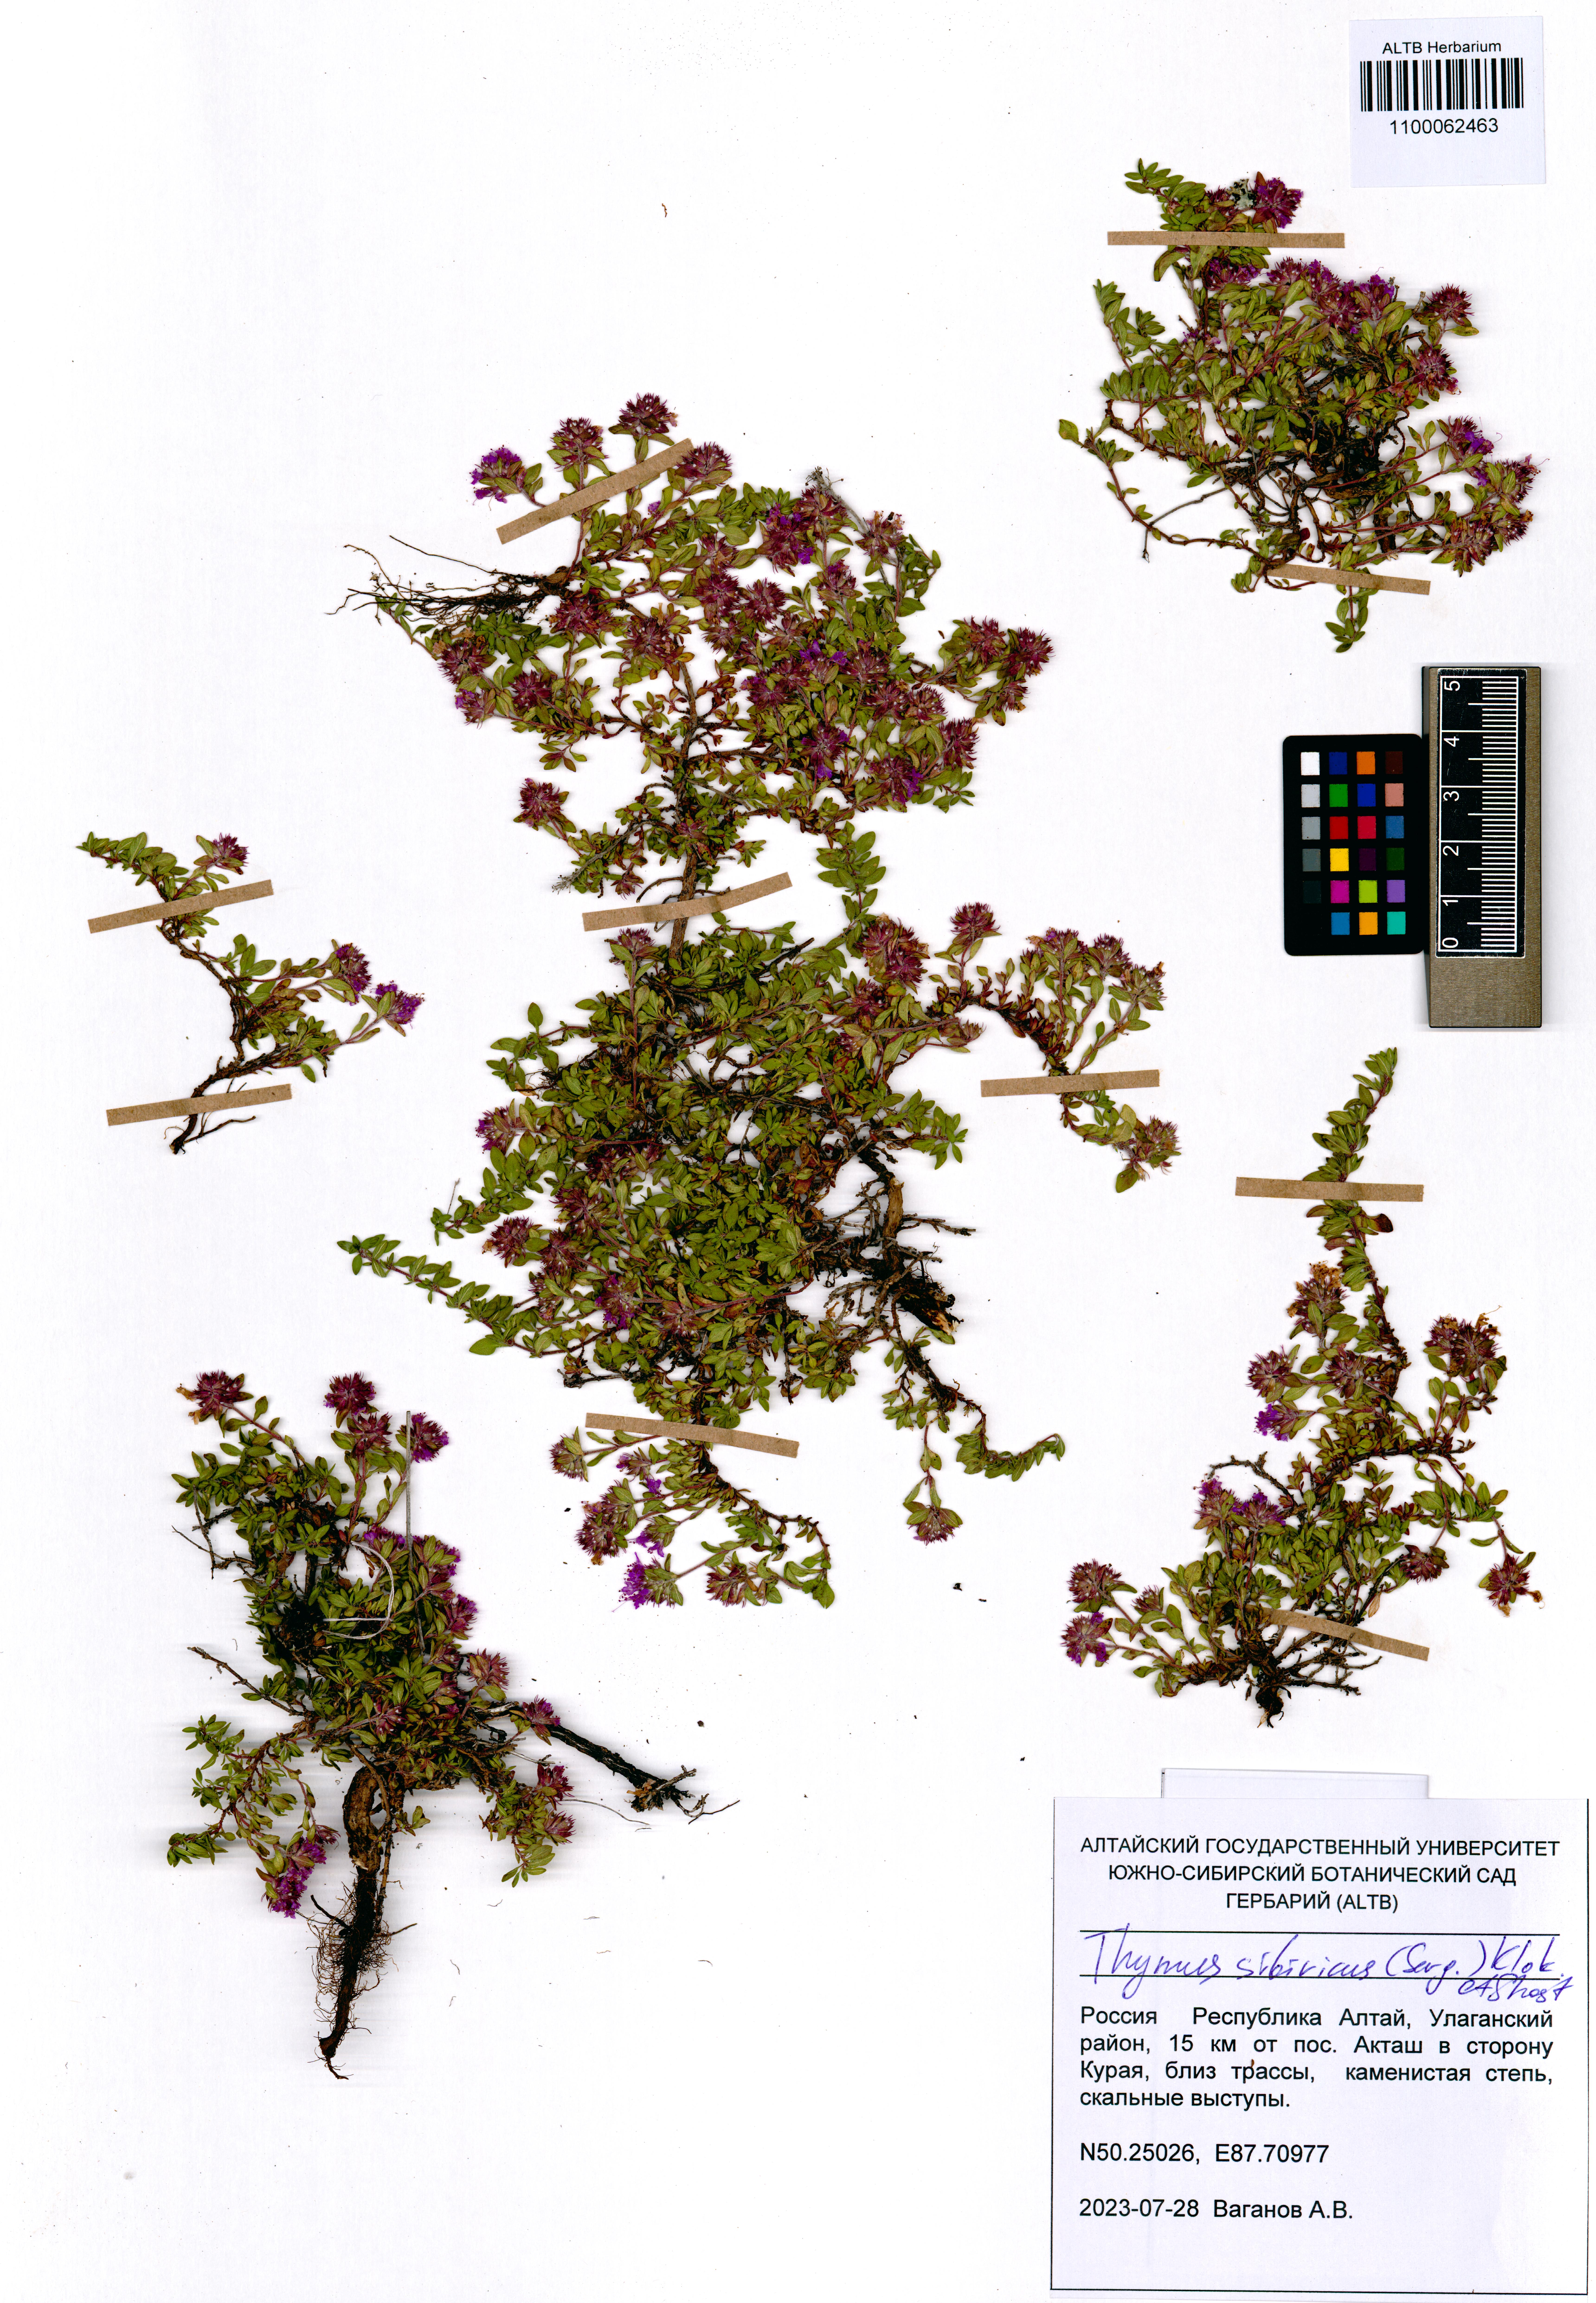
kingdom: Plantae
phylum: Tracheophyta
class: Magnoliopsida
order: Lamiales
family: Lamiaceae
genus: Thymus
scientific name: Thymus sibiricus
